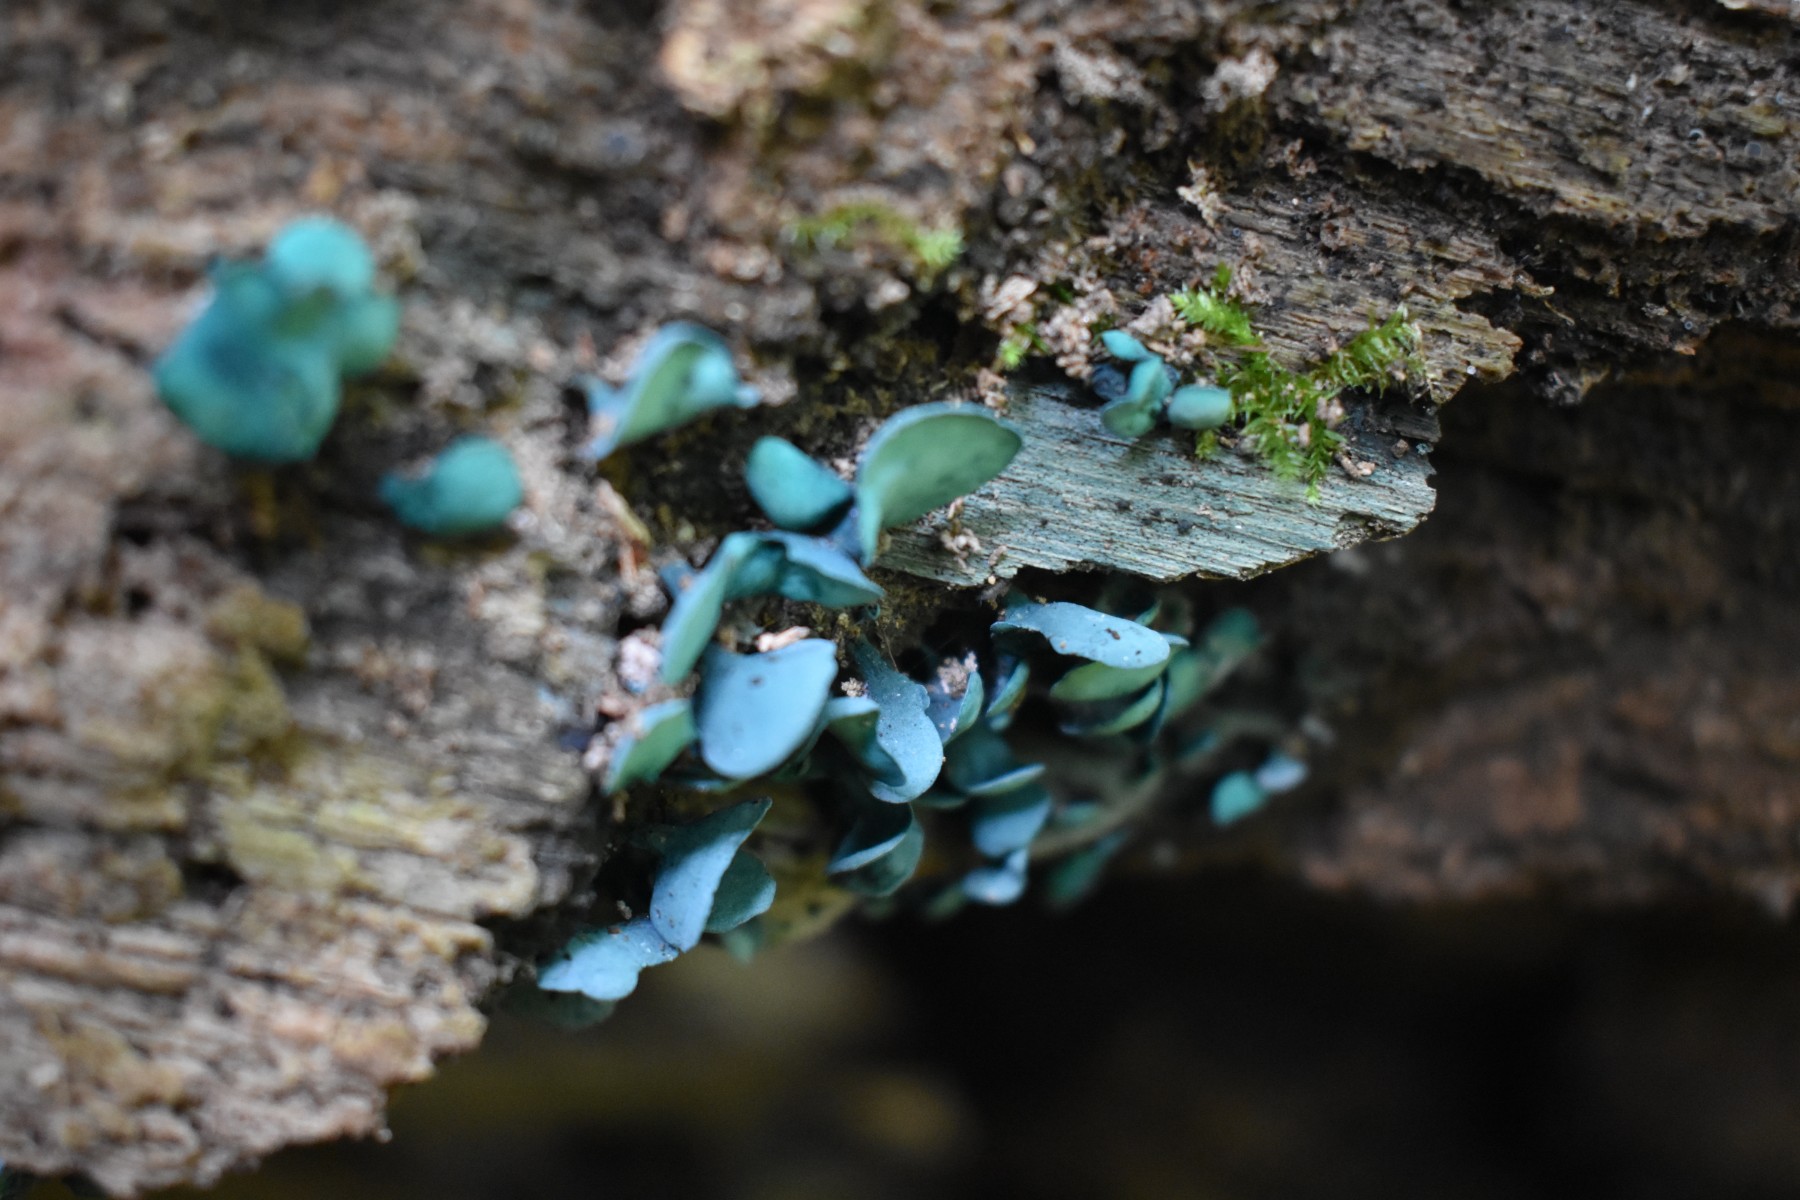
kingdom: Fungi
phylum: Ascomycota
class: Leotiomycetes
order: Helotiales
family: Chlorociboriaceae
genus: Chlorociboria
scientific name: Chlorociboria aeruginascens
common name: almindelig grønskive
